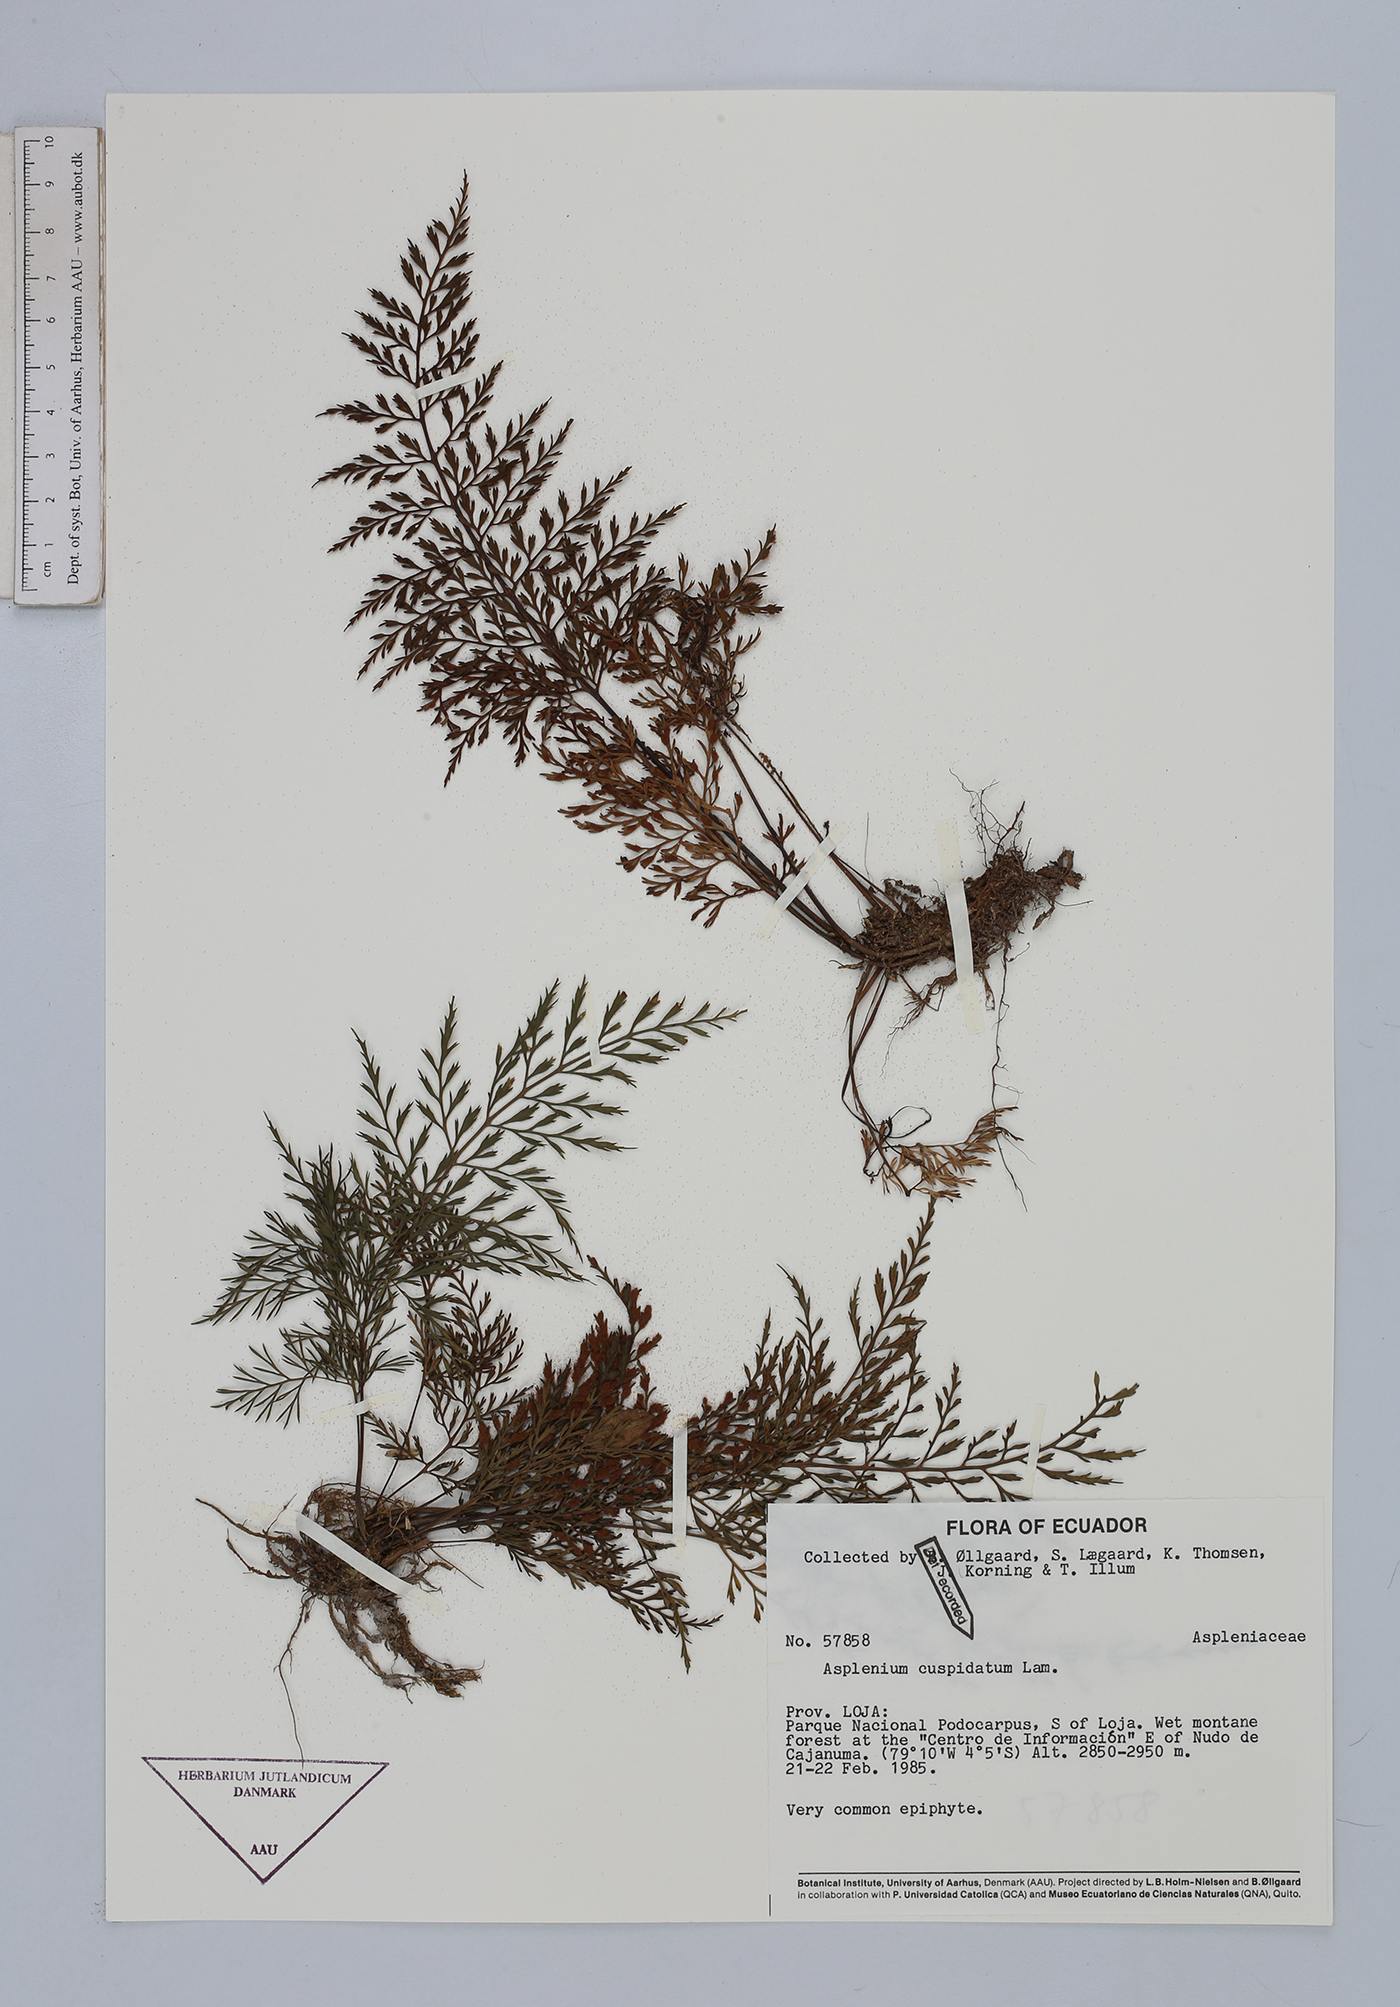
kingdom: Plantae
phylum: Tracheophyta
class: Polypodiopsida
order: Polypodiales
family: Aspleniaceae
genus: Asplenium
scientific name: Asplenium cuspidatum
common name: Eared spleenwort
